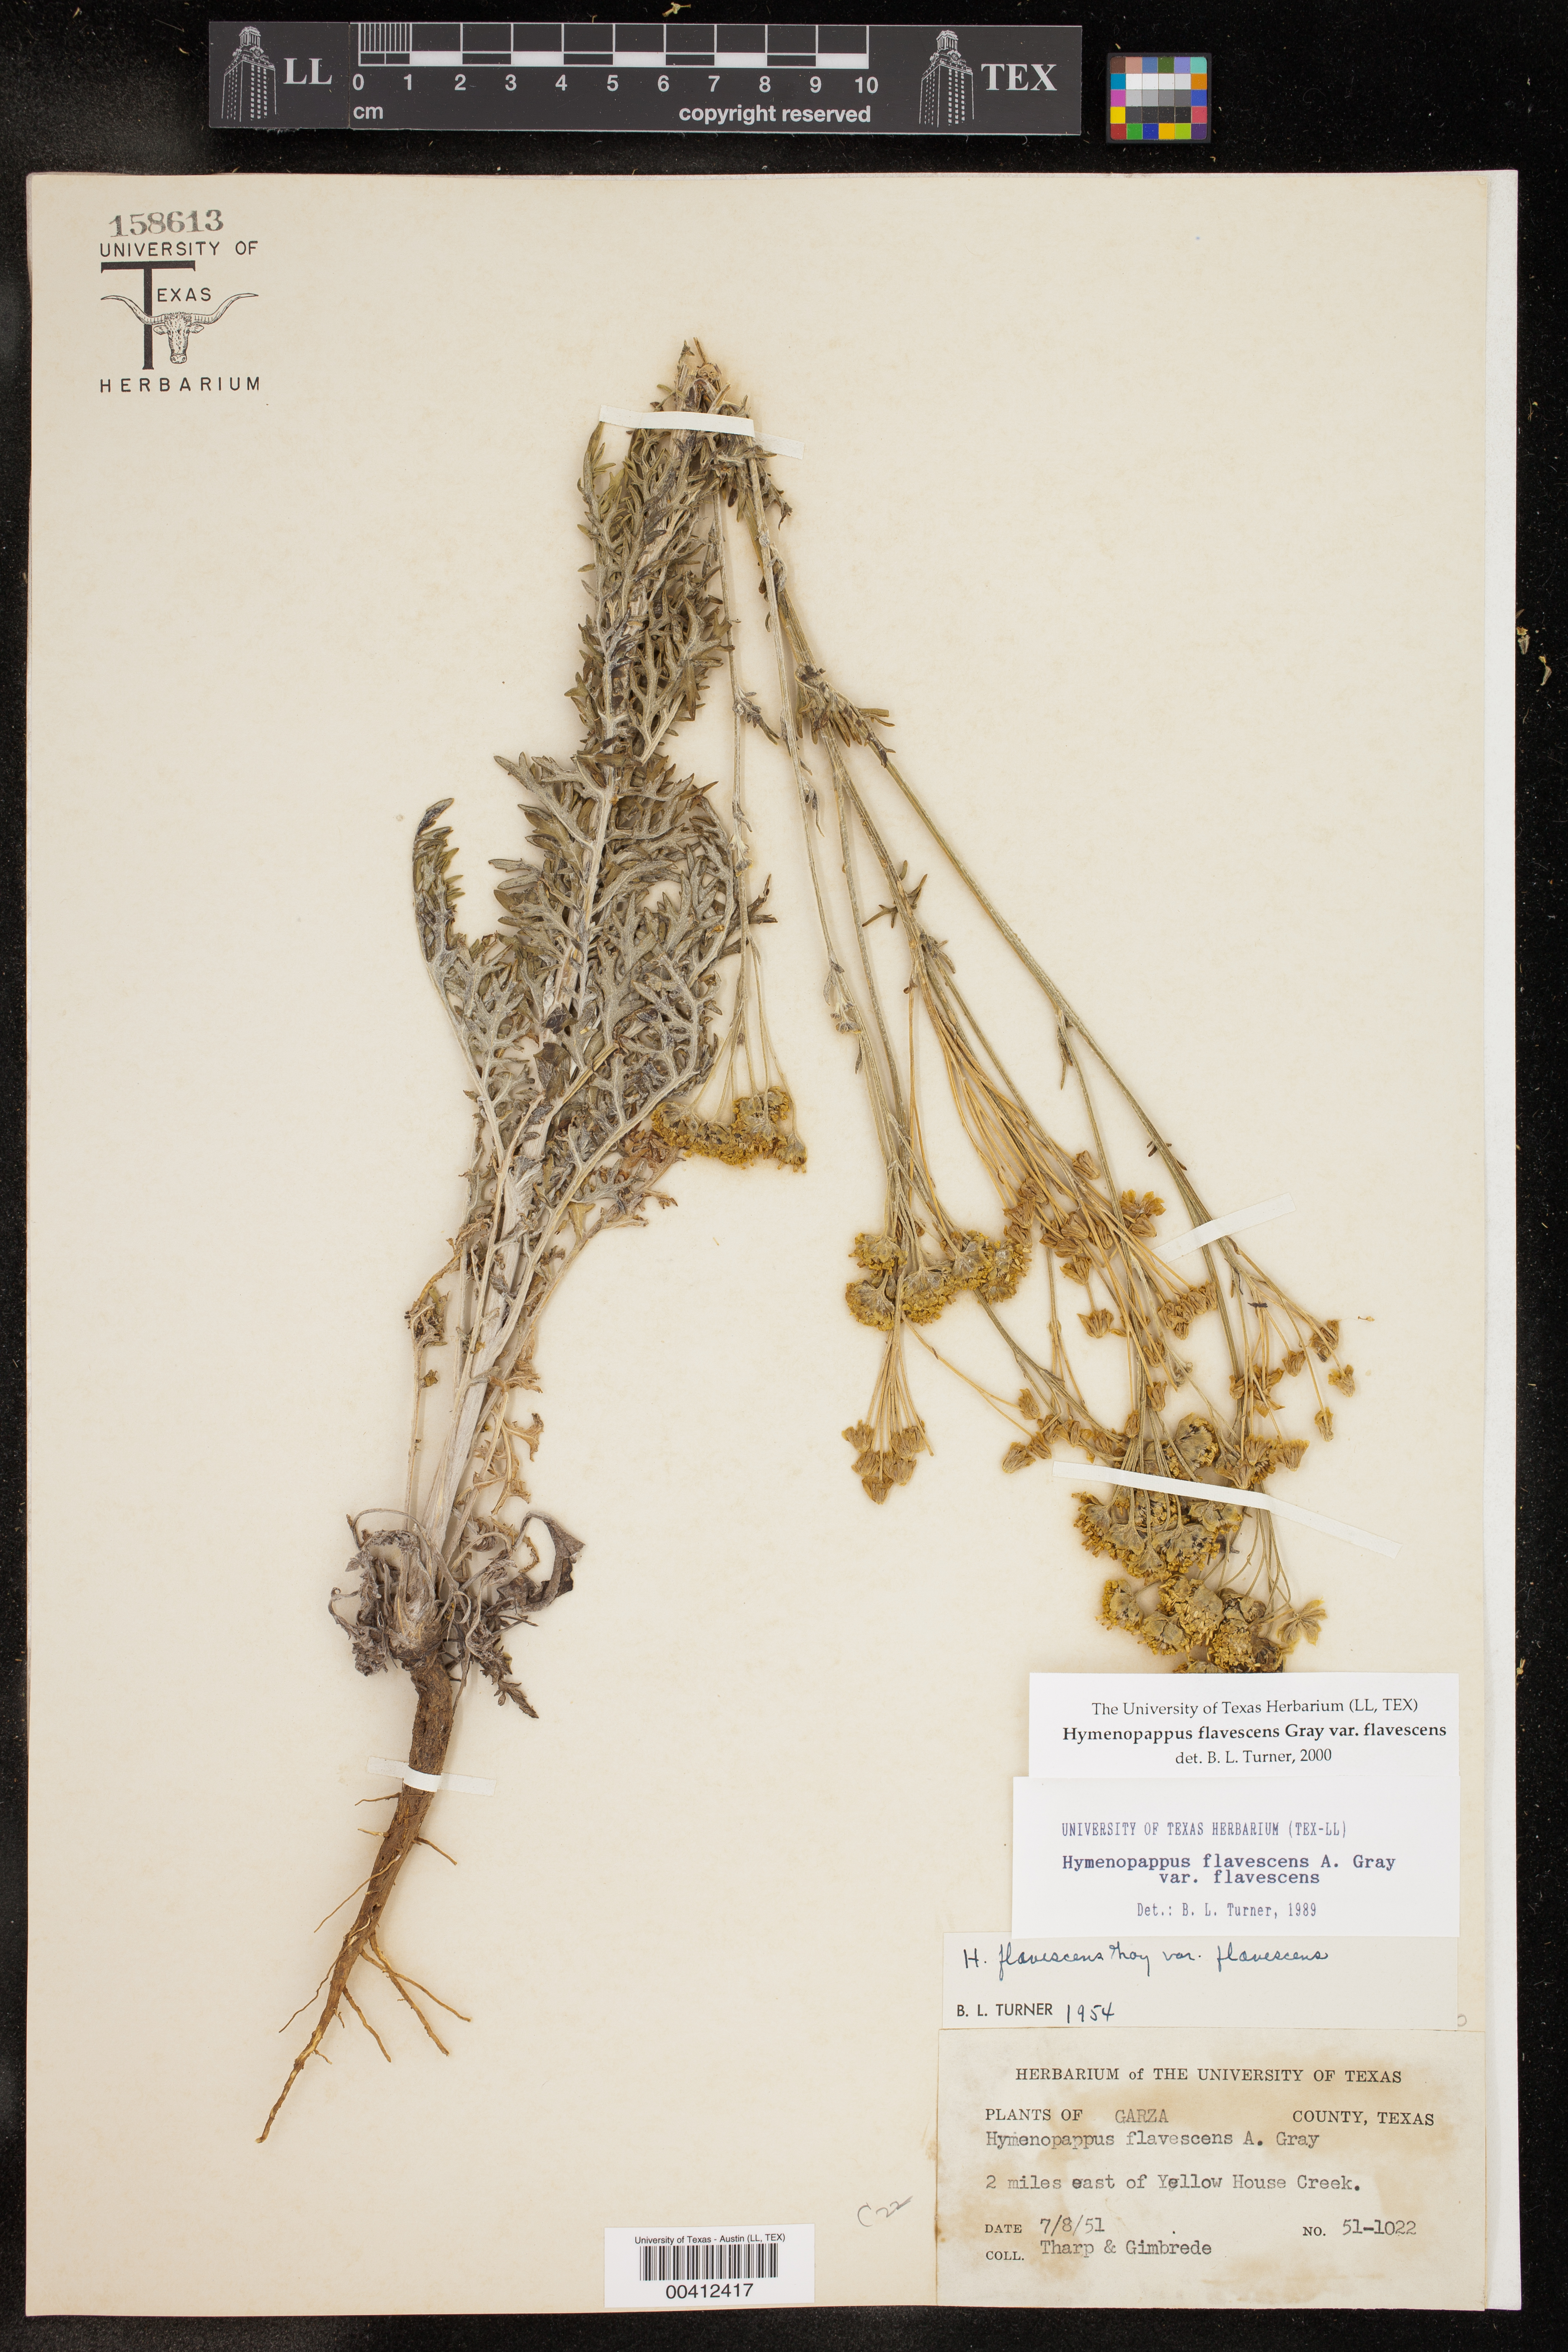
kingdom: Plantae
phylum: Tracheophyta
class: Magnoliopsida
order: Asterales
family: Asteraceae
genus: Hymenopappus
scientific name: Hymenopappus flavescens
